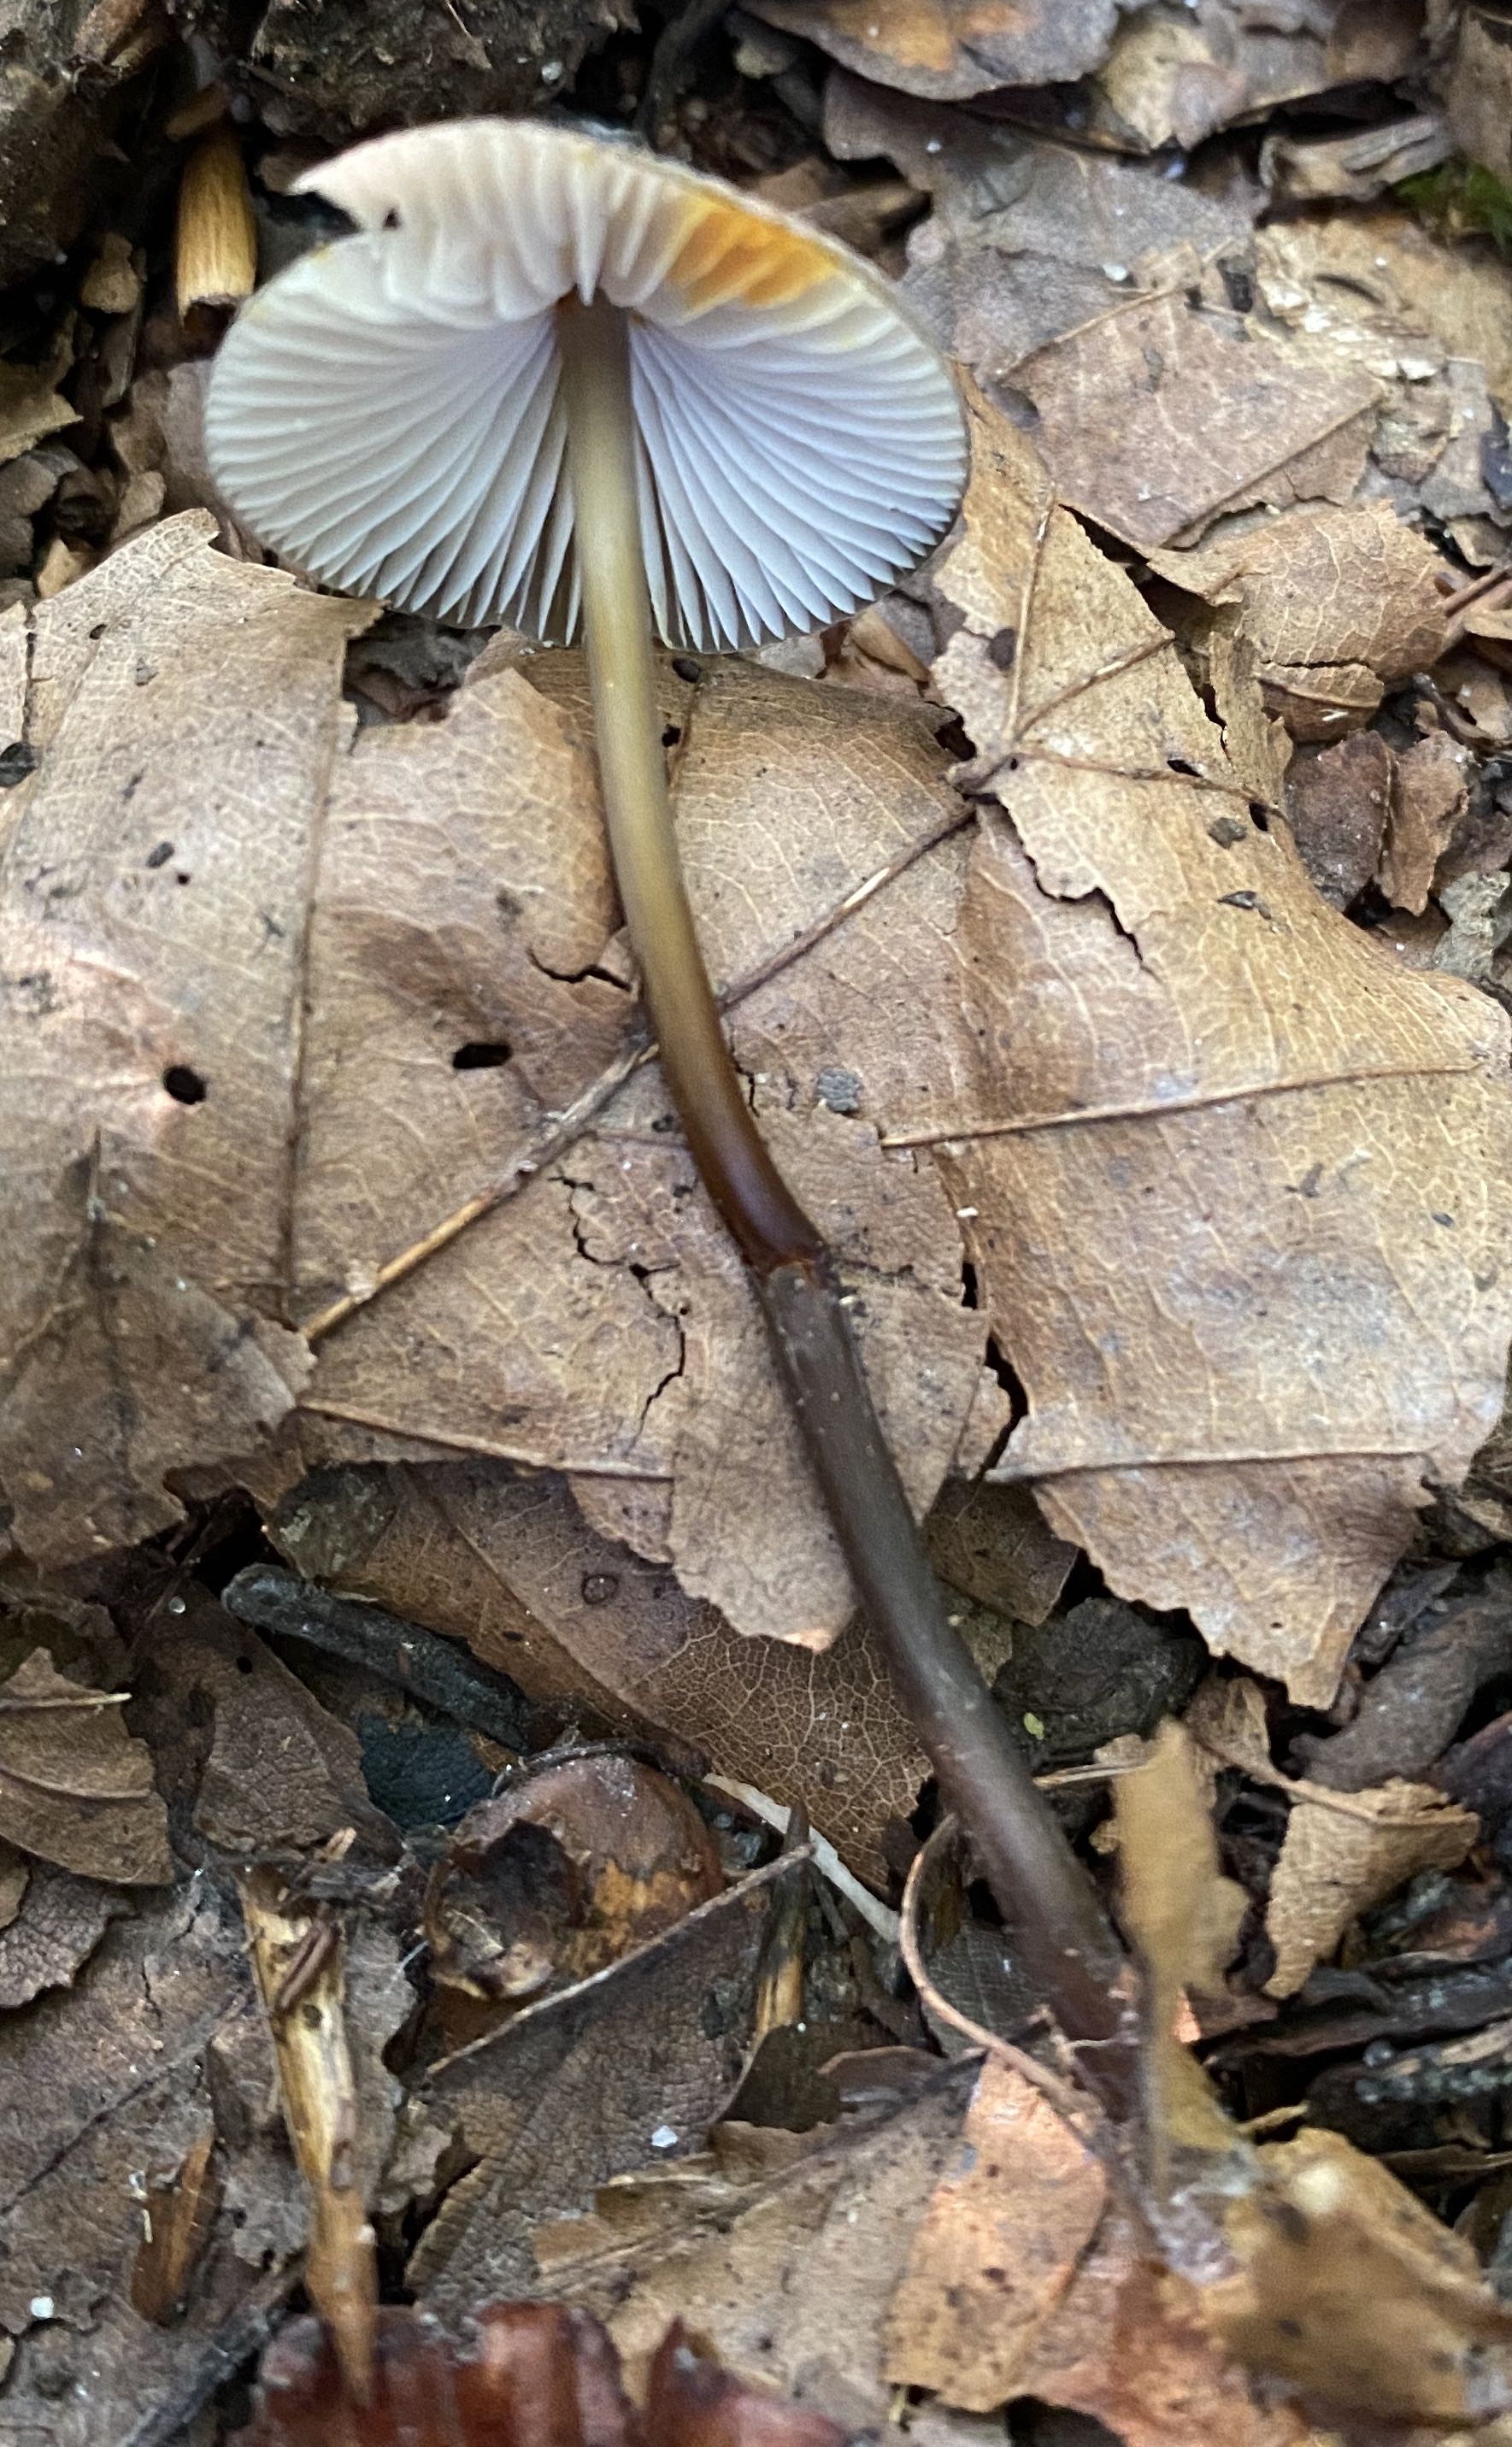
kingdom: Fungi
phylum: Basidiomycota
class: Agaricomycetes
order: Agaricales
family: Mycenaceae
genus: Mycena
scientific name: Mycena crocata
